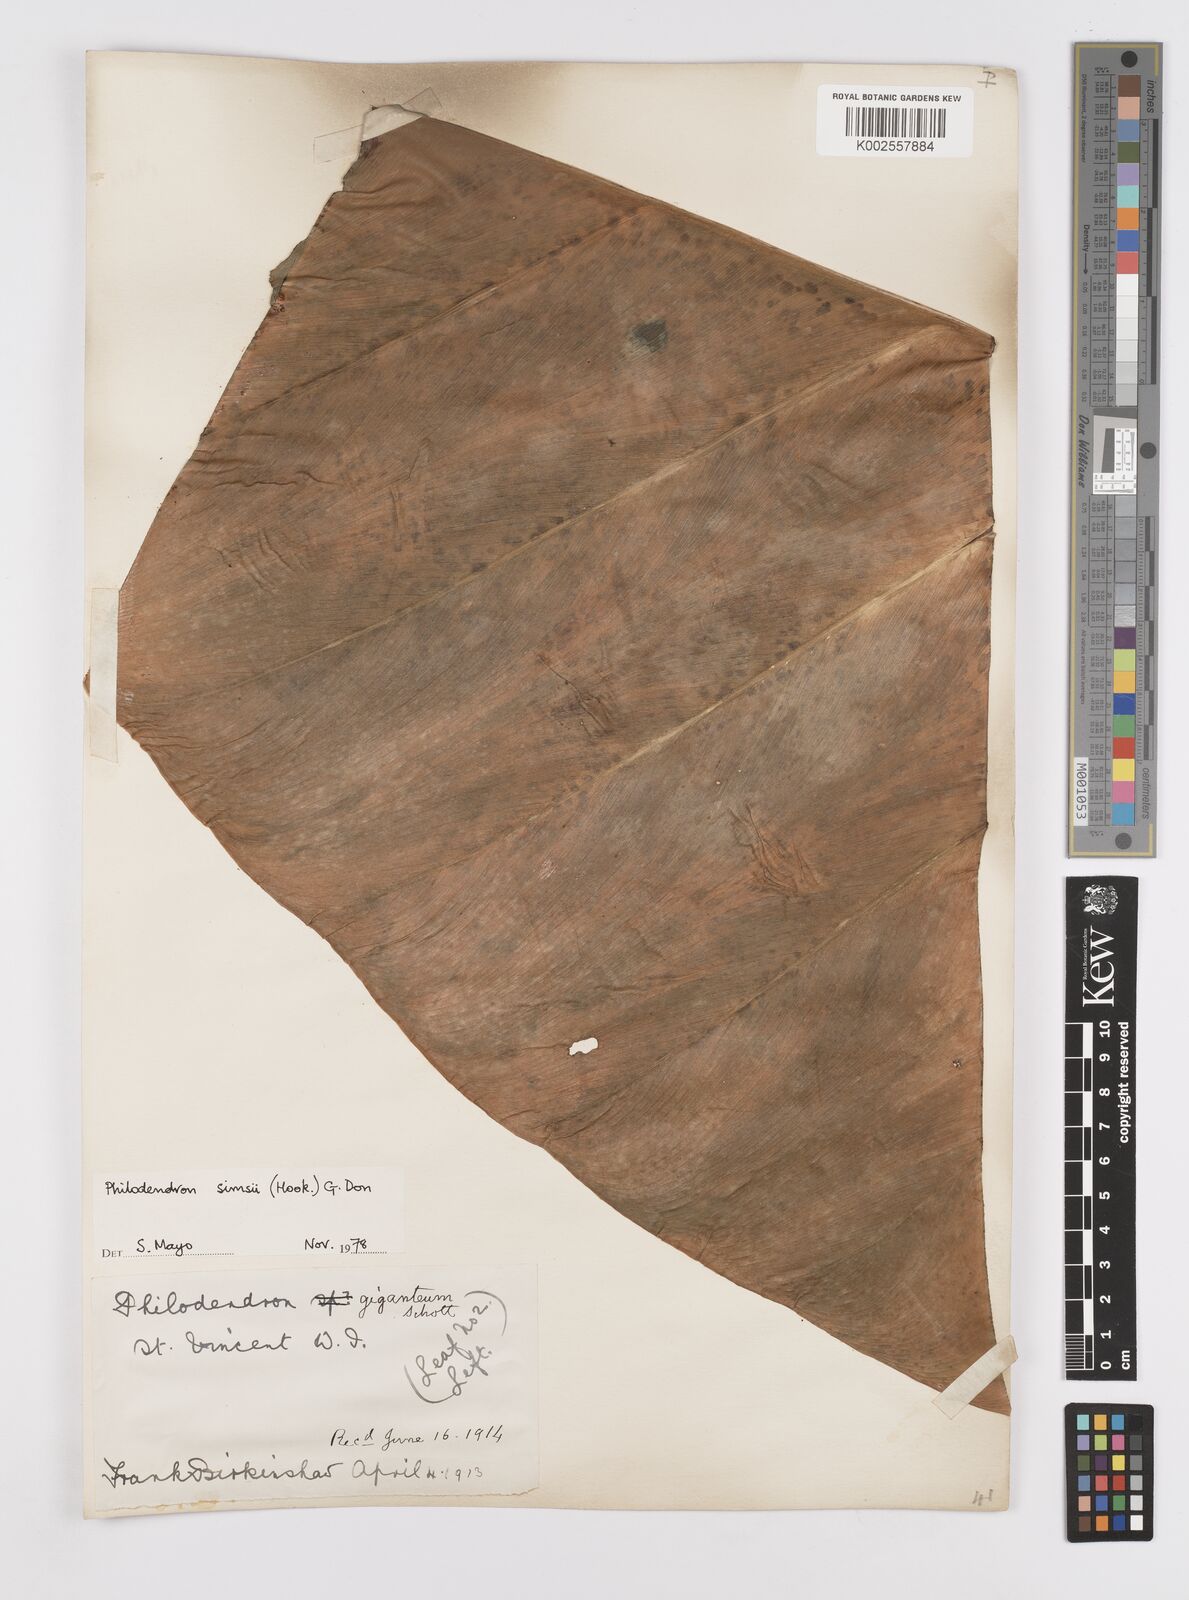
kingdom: Plantae
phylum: Tracheophyta
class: Liliopsida
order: Alismatales
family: Araceae
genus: Philodendron
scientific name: Philodendron
